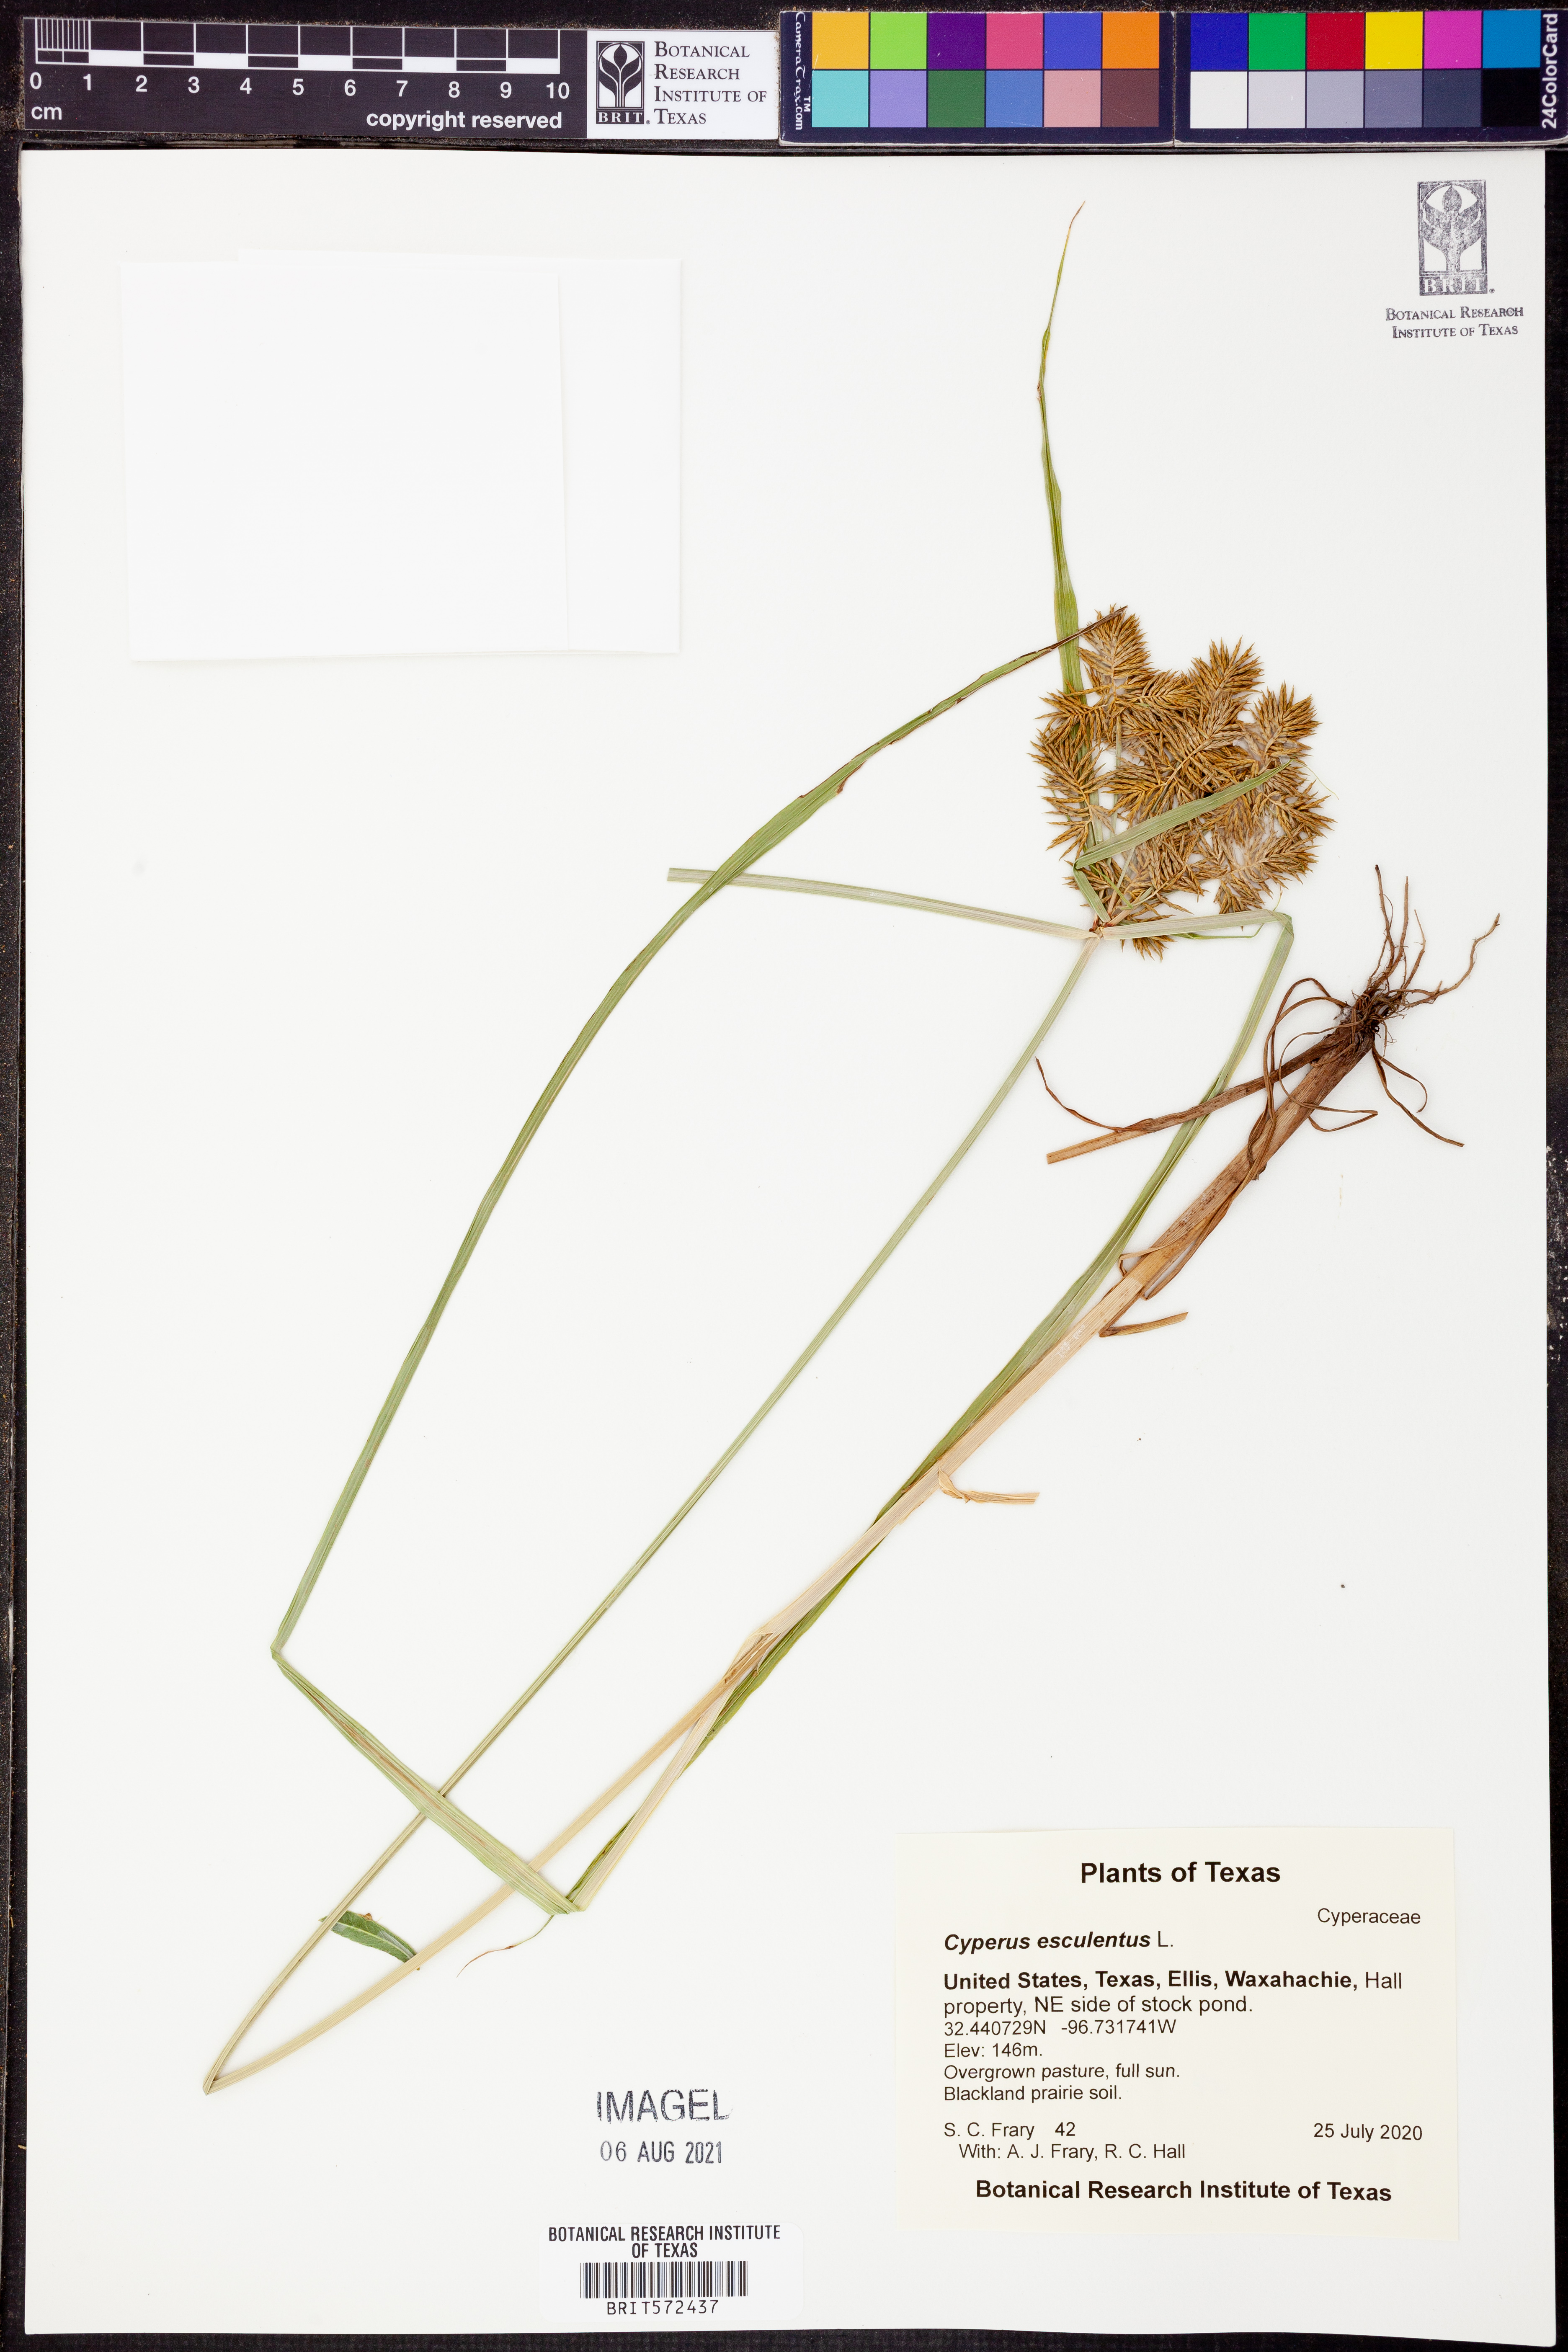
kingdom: Plantae
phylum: Tracheophyta
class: Liliopsida
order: Poales
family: Cyperaceae
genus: Cyperus
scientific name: Cyperus esculentus
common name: Yellow nutsedge
